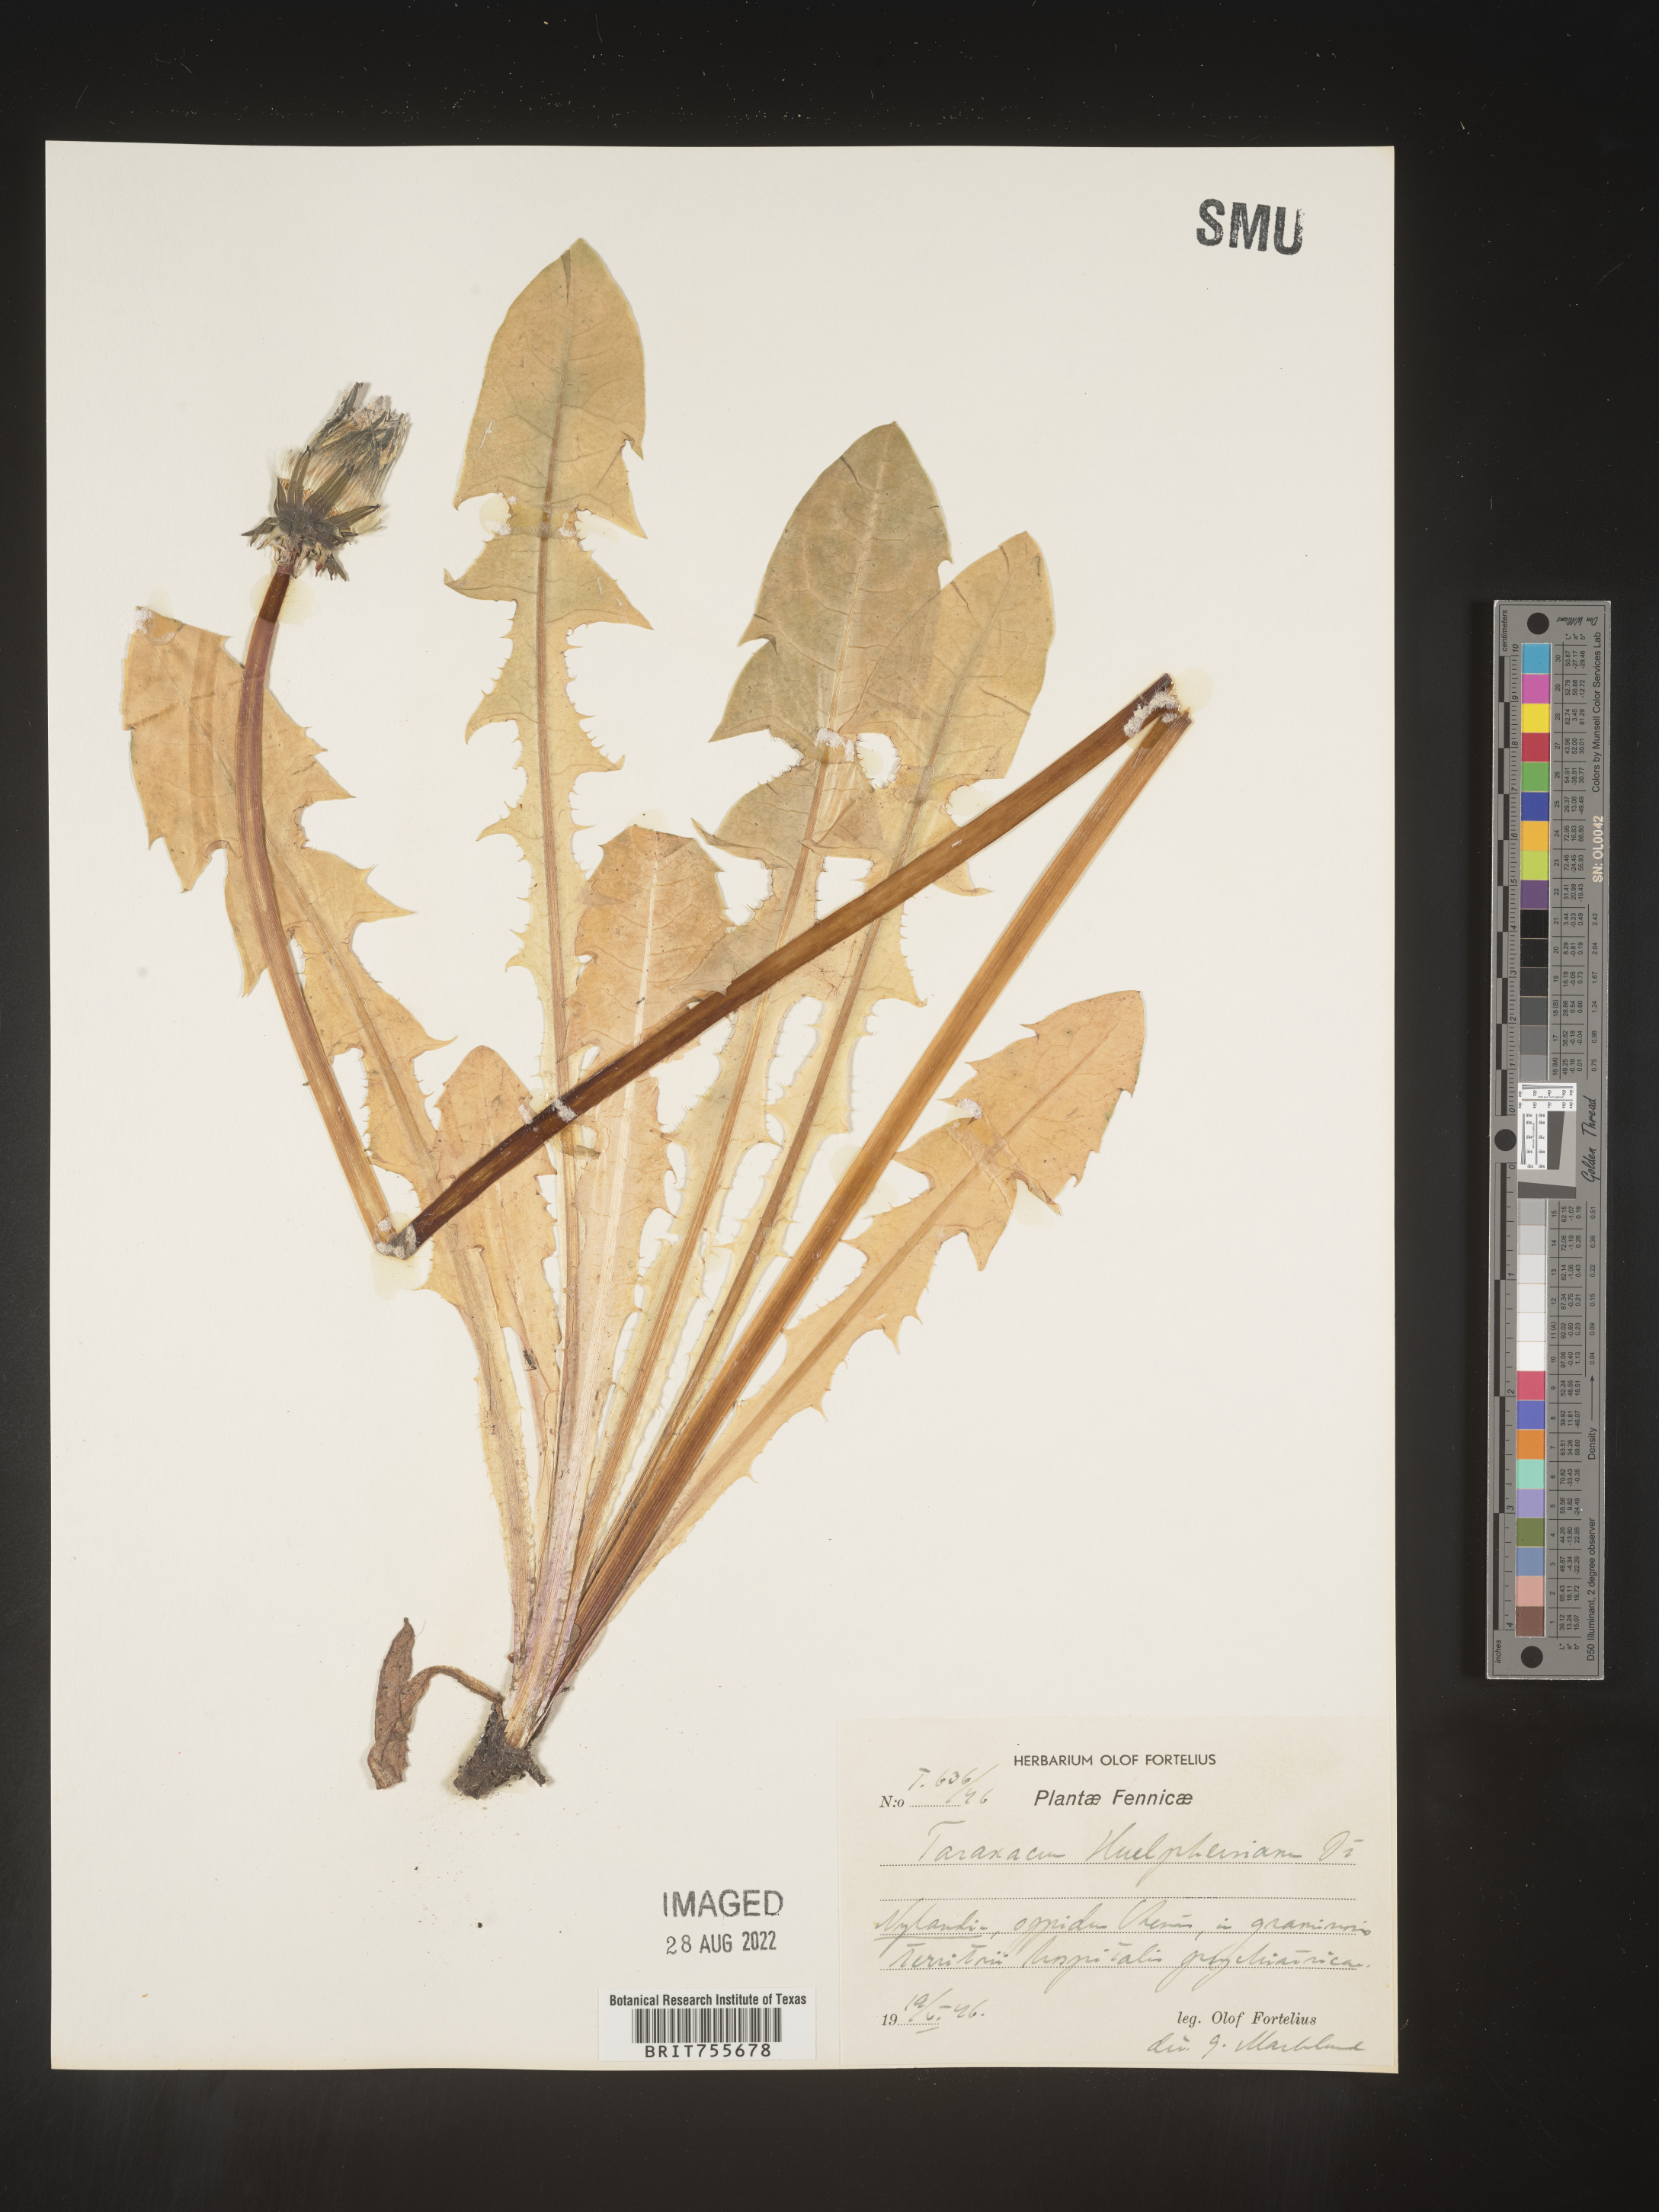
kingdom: Plantae
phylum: Tracheophyta
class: Magnoliopsida
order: Asterales
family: Asteraceae
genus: Taraxacum
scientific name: Taraxacum
